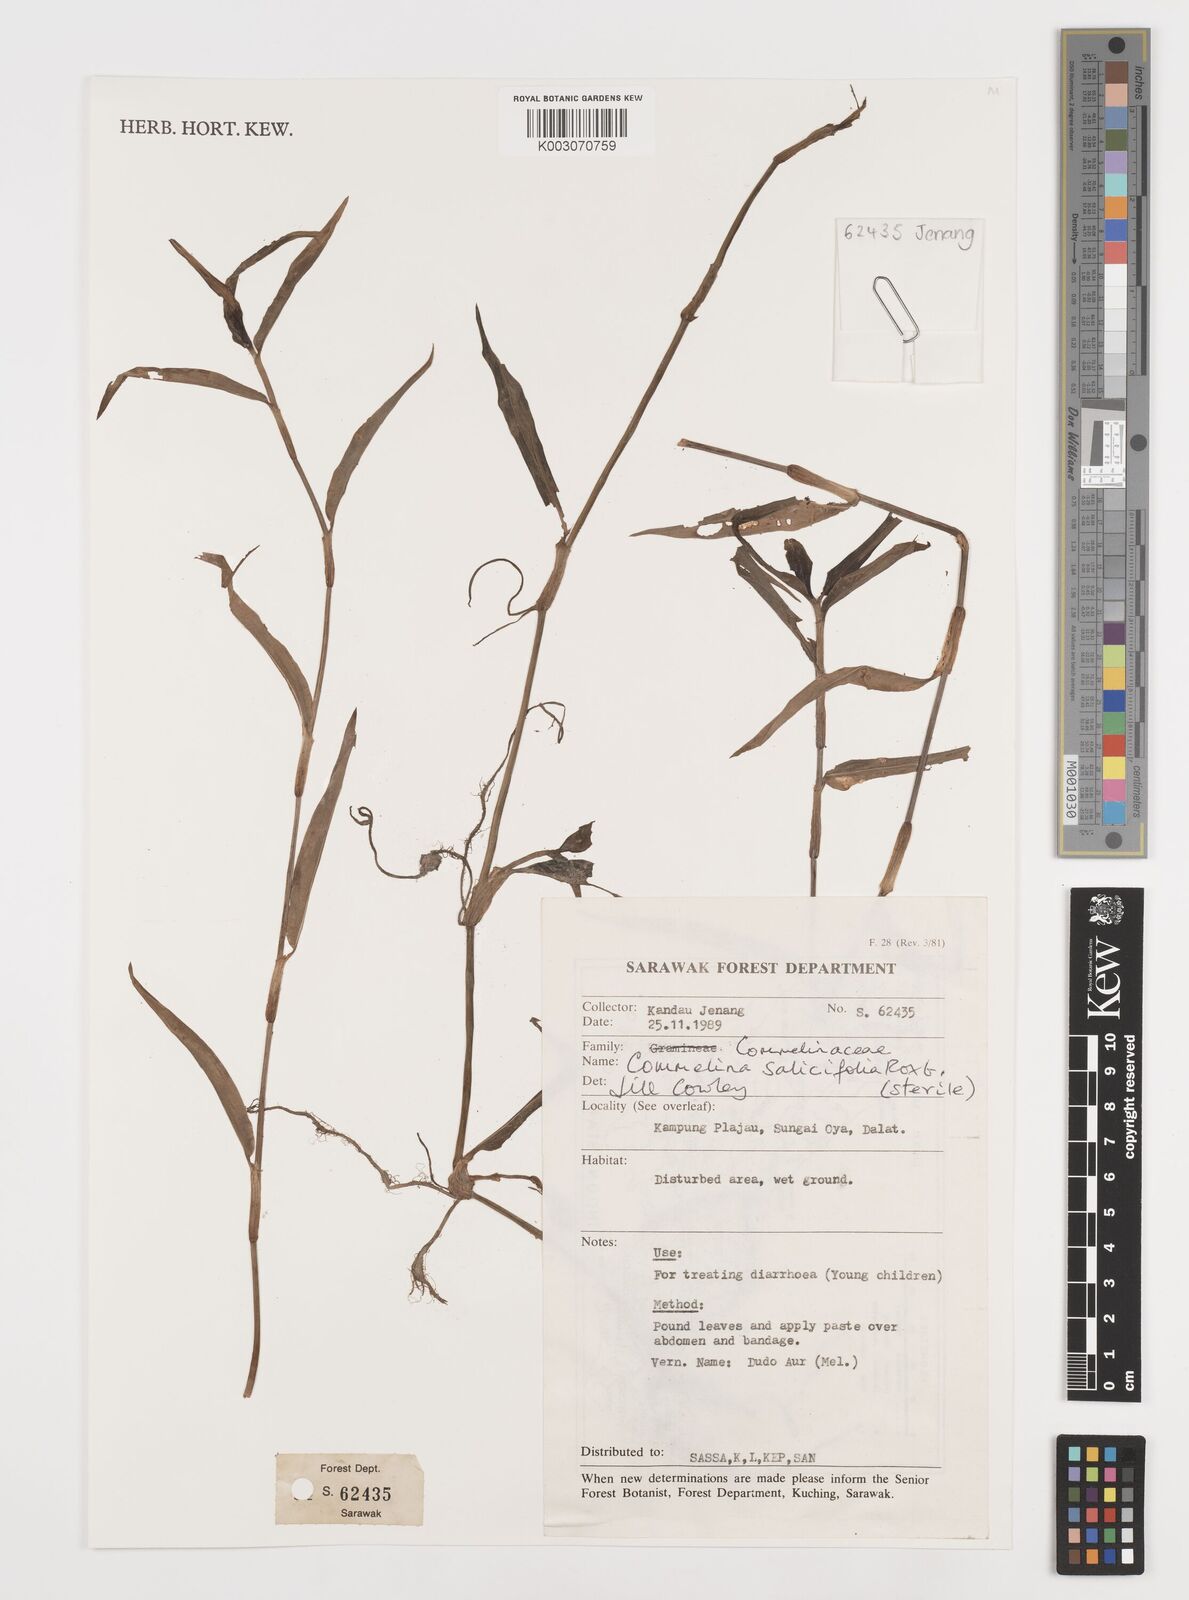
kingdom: Plantae
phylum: Tracheophyta
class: Liliopsida
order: Commelinales
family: Commelinaceae
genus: Commelina
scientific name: Commelina longifolia
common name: Longleaf dayflower
